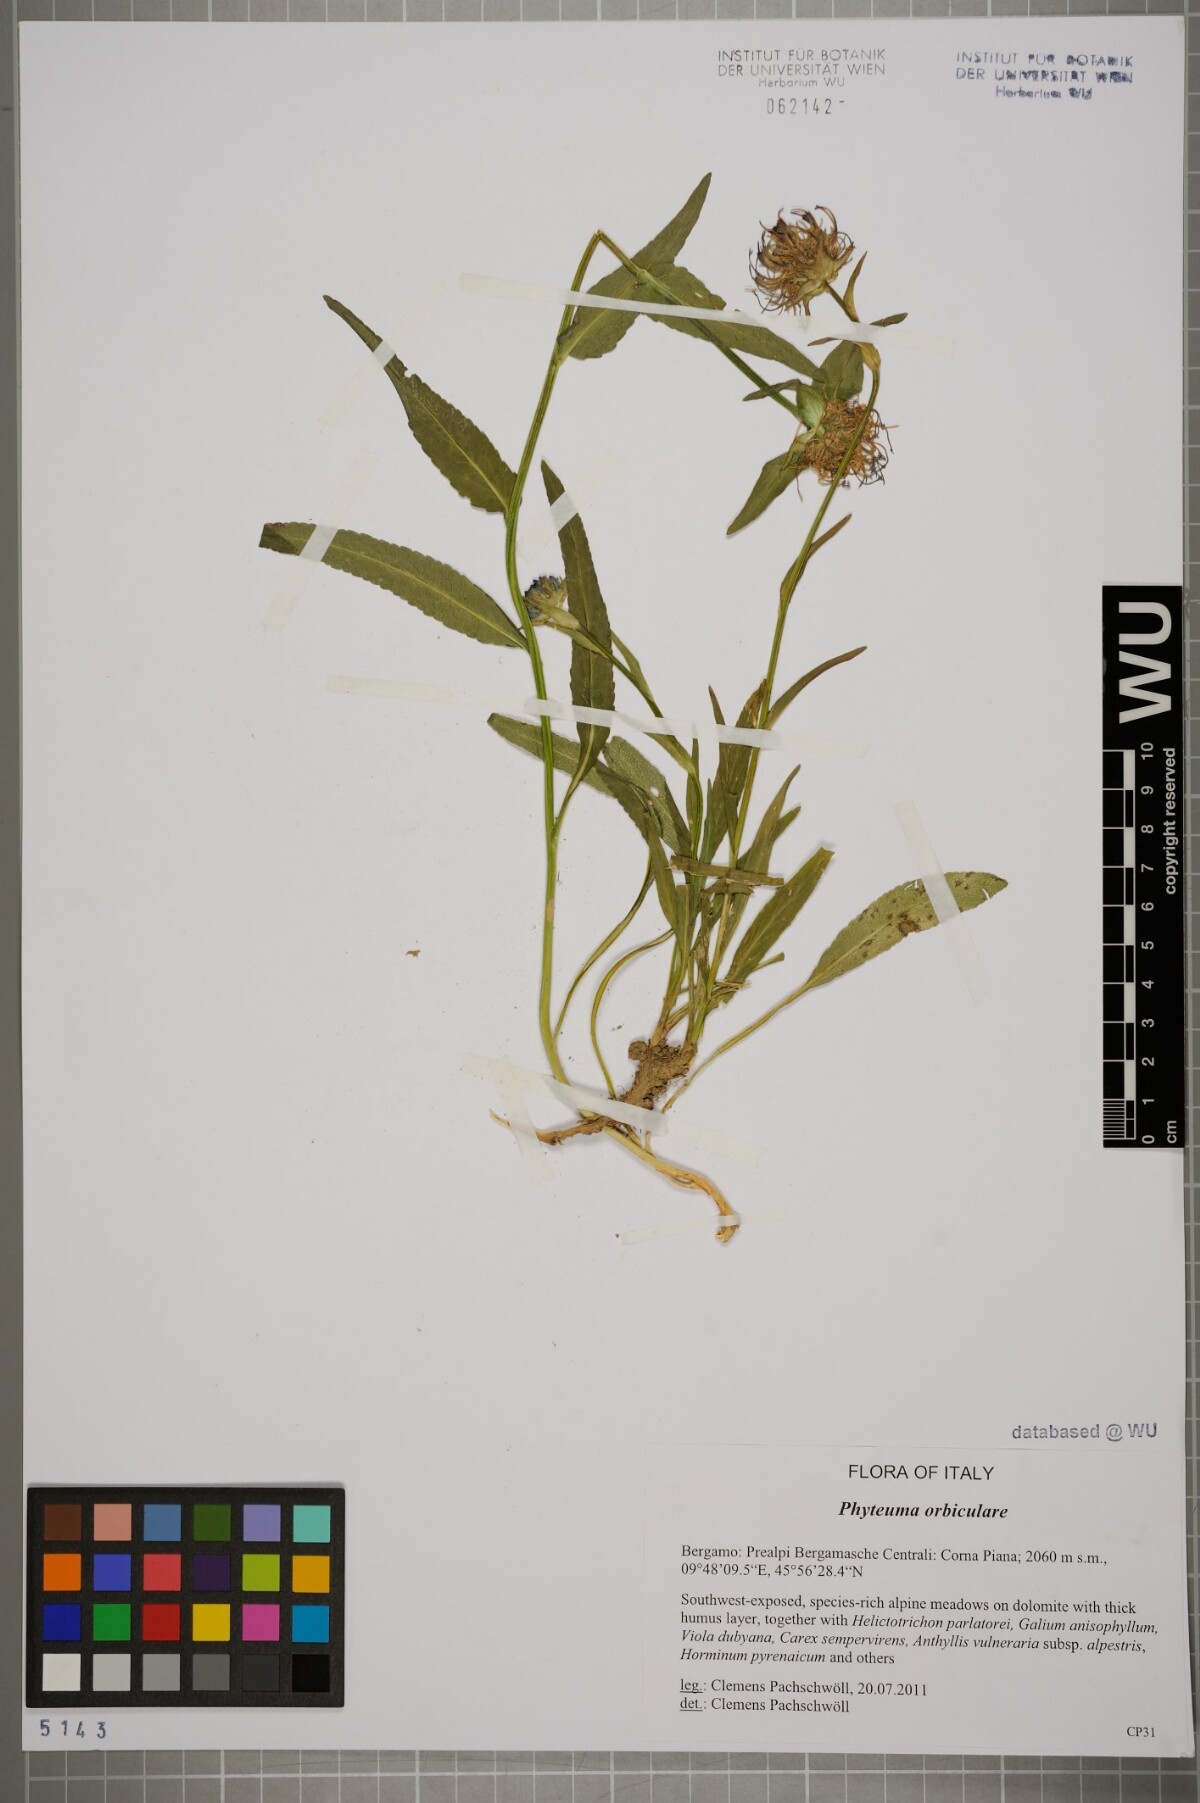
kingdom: Plantae
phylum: Tracheophyta
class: Magnoliopsida
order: Asterales
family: Campanulaceae
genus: Phyteuma
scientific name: Phyteuma orbiculare
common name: Round-headed rampion
